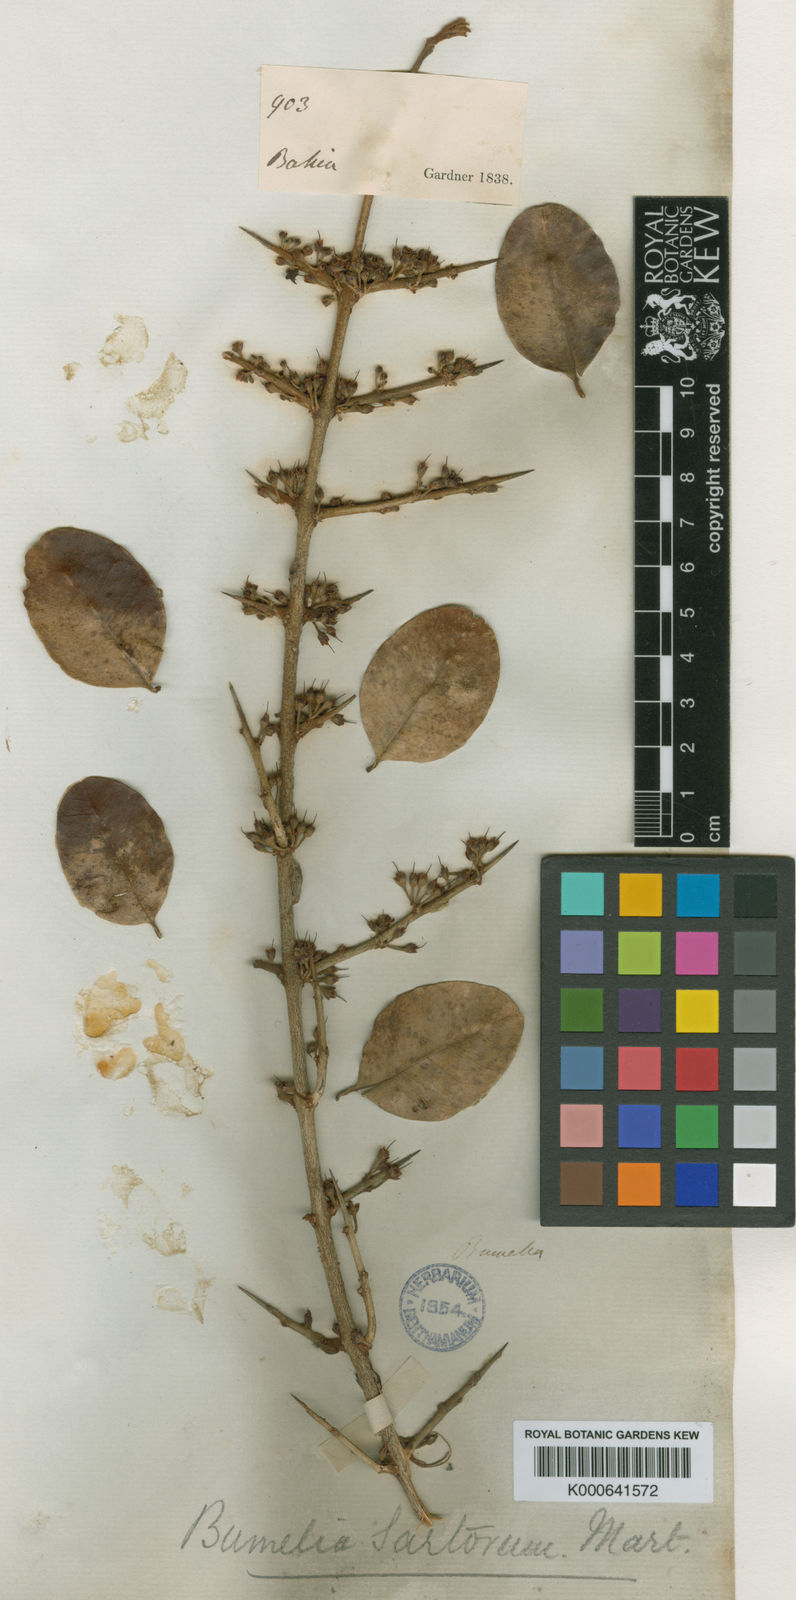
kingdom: Plantae
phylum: Tracheophyta
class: Magnoliopsida
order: Ericales
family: Sapotaceae
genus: Sideroxylon
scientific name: Sideroxylon obtusifolium
